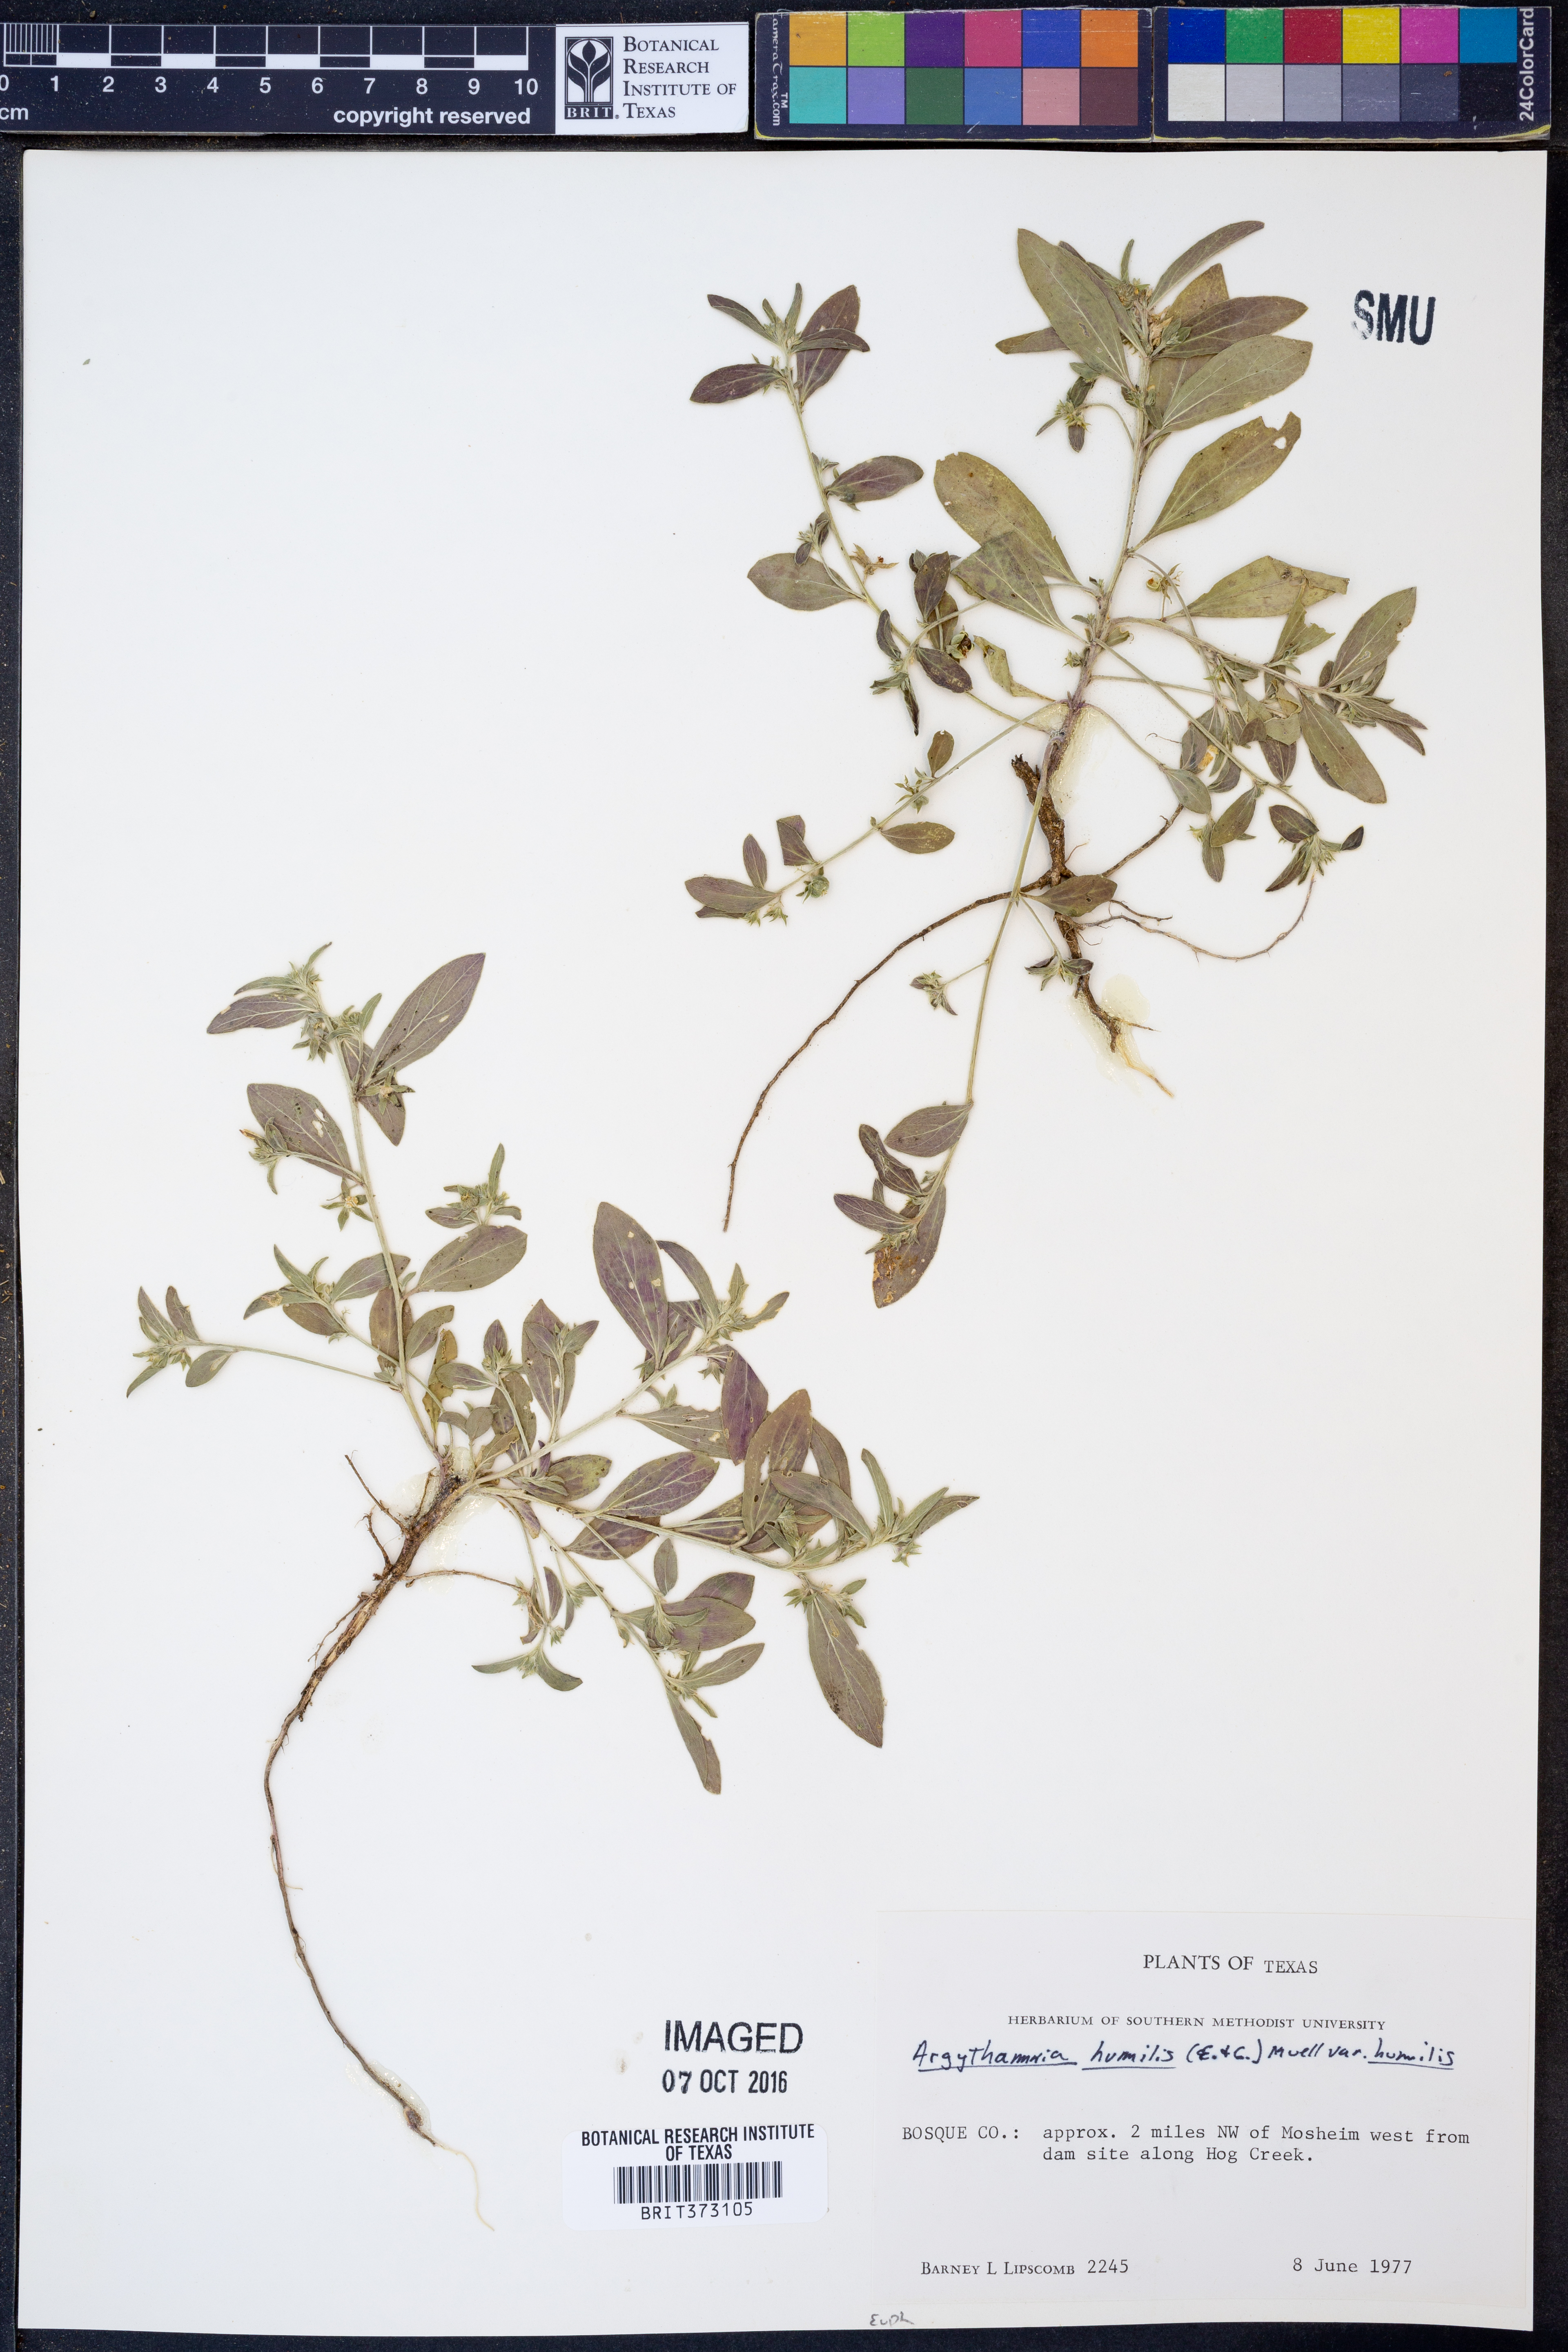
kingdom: Plantae
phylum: Tracheophyta
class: Magnoliopsida
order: Malpighiales
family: Euphorbiaceae
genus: Ditaxis
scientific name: Ditaxis humilis
